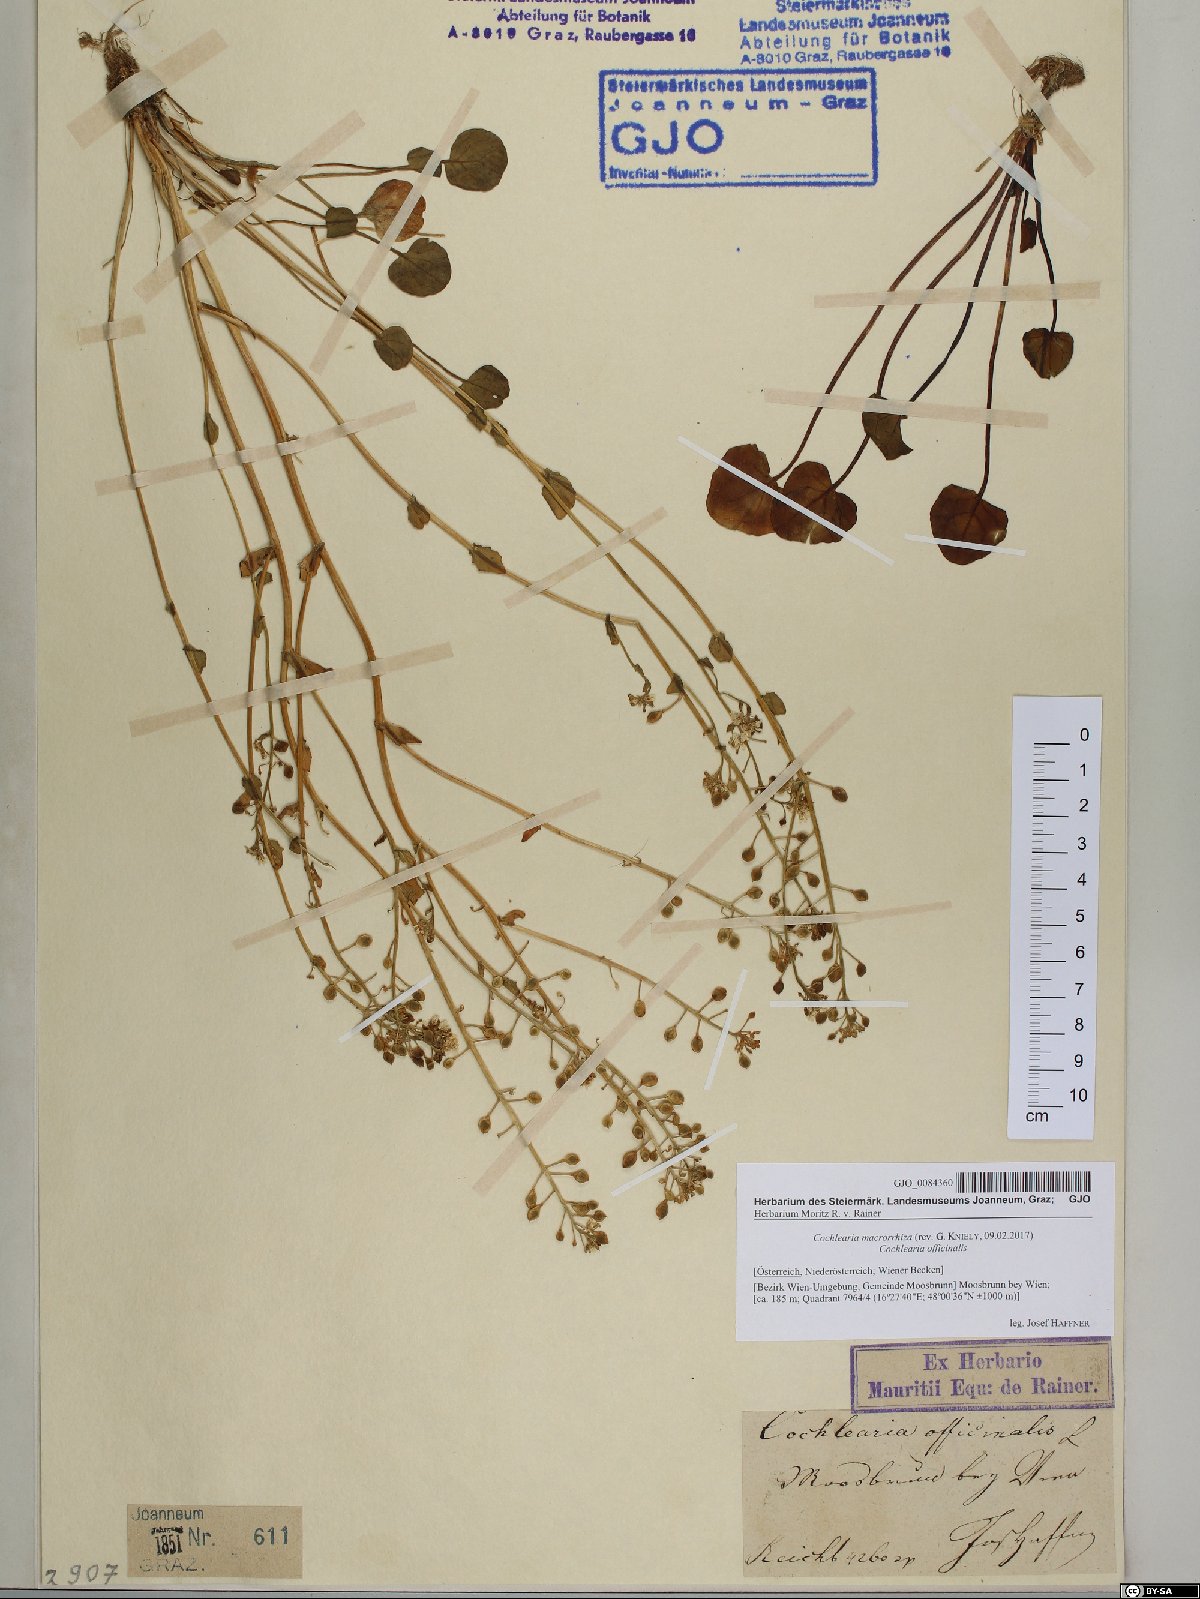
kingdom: Plantae
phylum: Tracheophyta
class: Magnoliopsida
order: Brassicales
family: Brassicaceae
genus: Cochlearia
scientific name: Cochlearia pyrenaica
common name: Upland scurvy-grass
